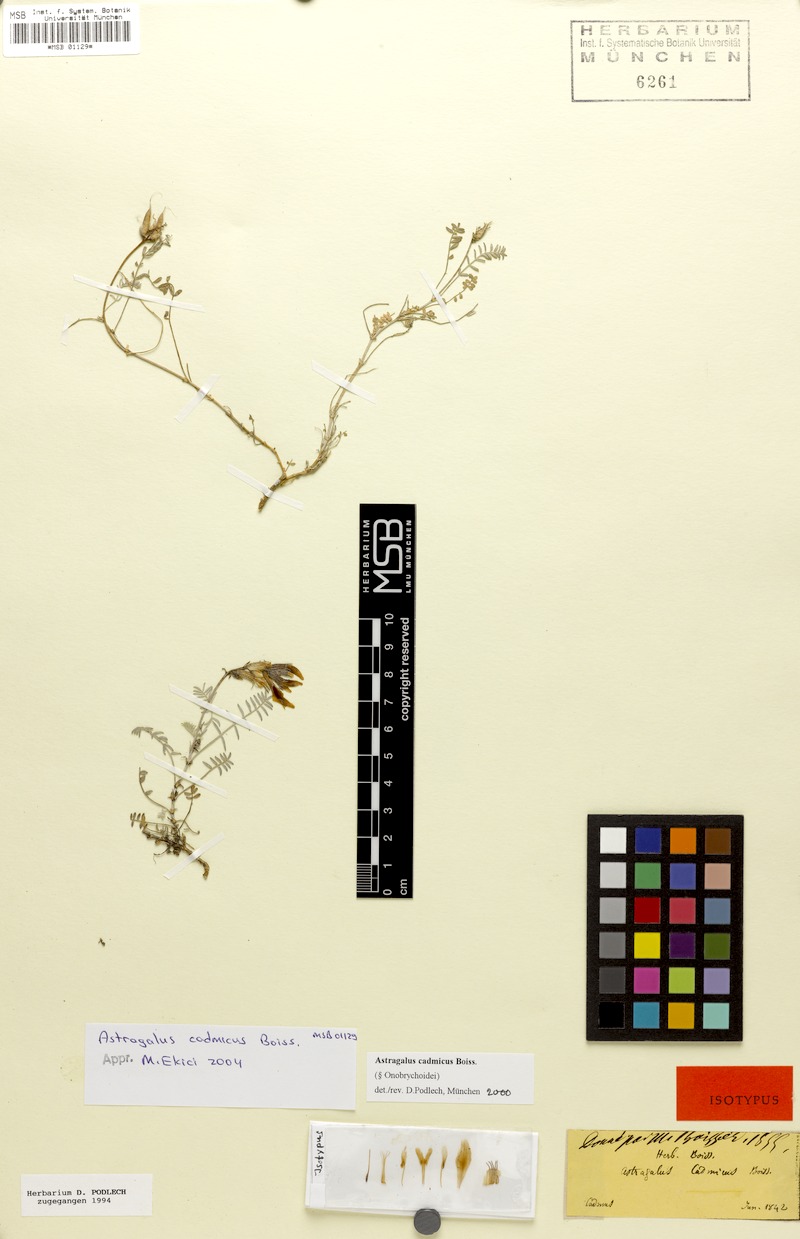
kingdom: Plantae
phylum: Tracheophyta
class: Magnoliopsida
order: Fabales
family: Fabaceae
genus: Astragalus
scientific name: Astragalus cadmicus
